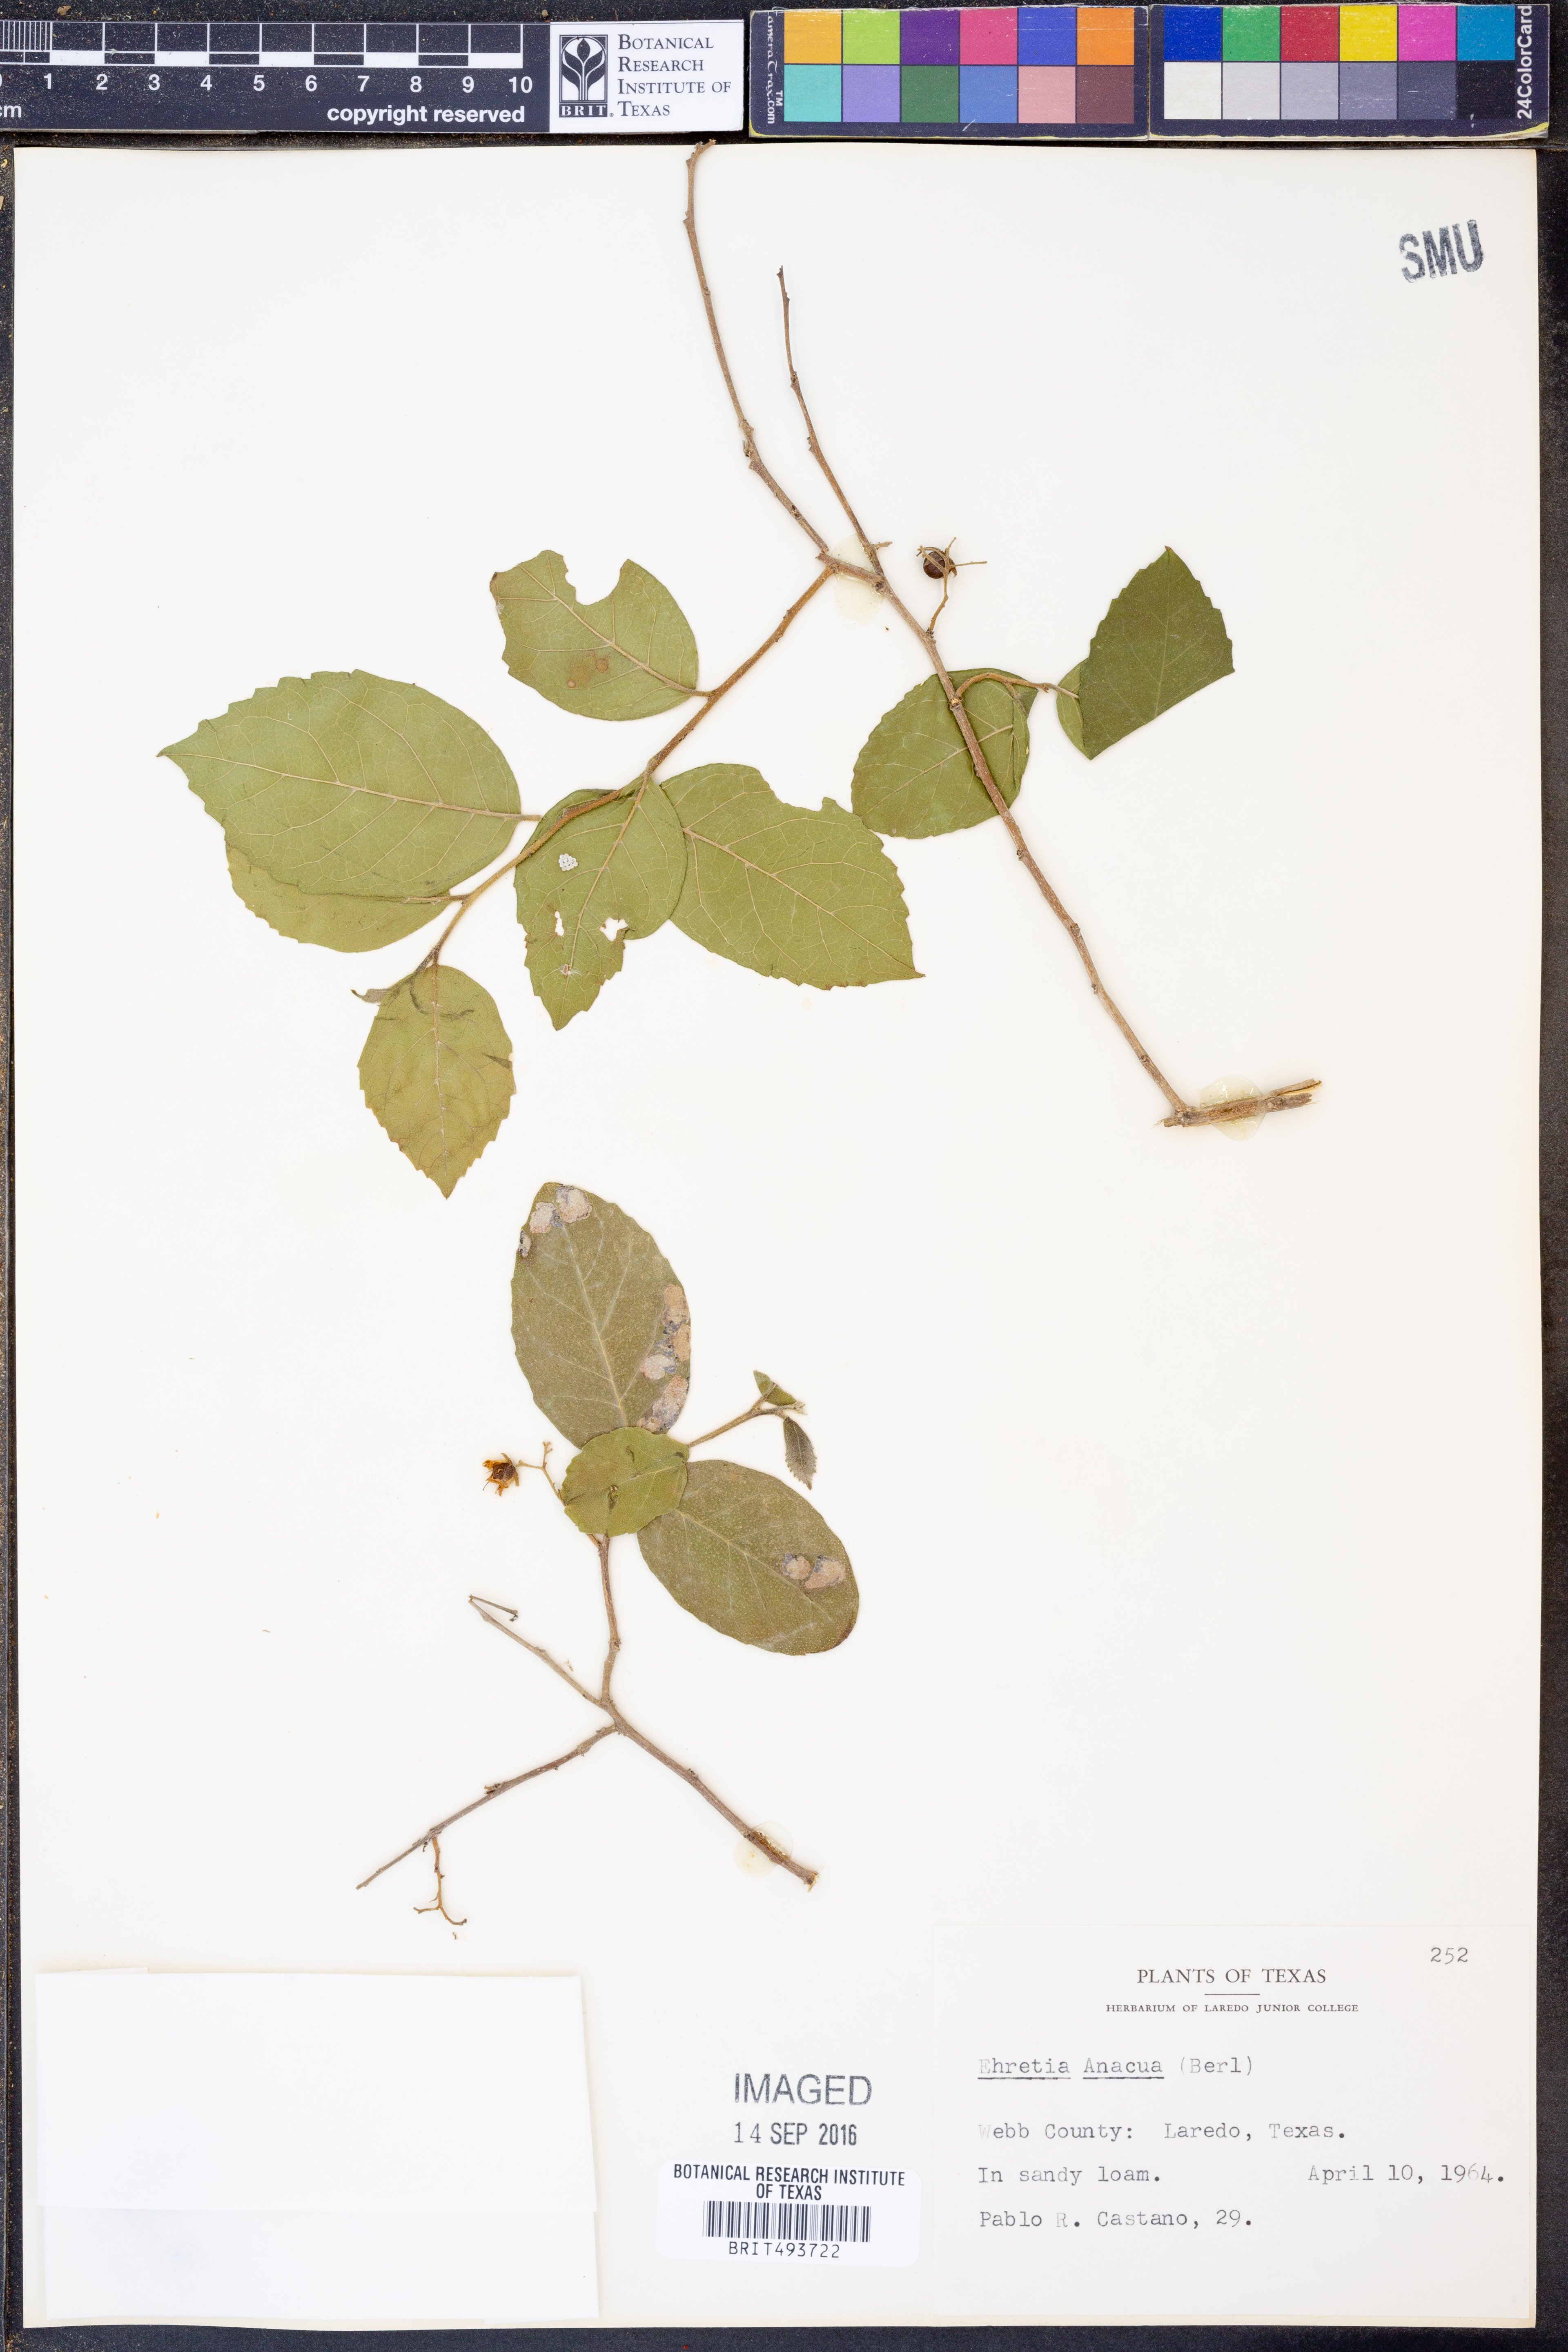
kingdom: Plantae
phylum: Tracheophyta
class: Magnoliopsida
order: Boraginales
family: Ehretiaceae
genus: Ehretia
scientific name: Ehretia anacua
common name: Sugarberry
